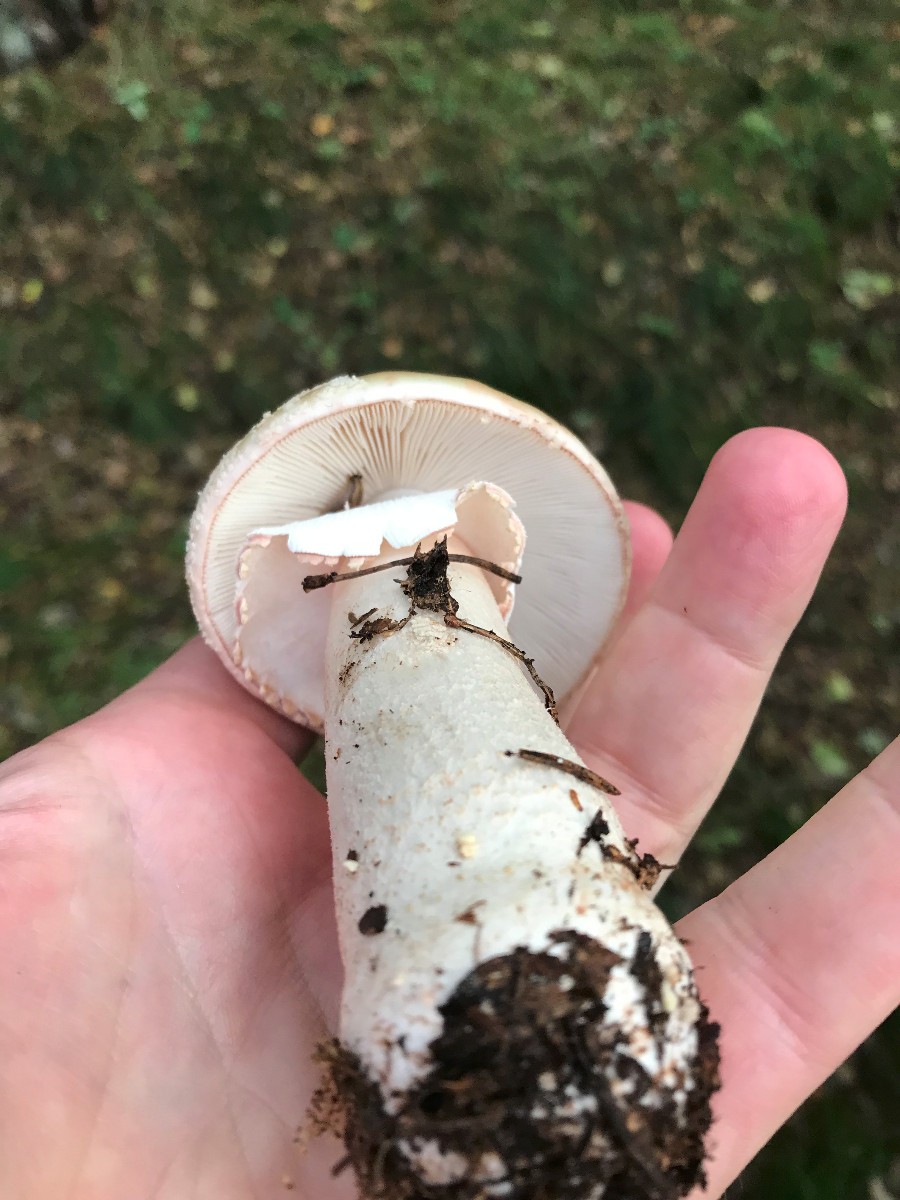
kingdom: Fungi
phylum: Basidiomycota
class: Agaricomycetes
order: Agaricales
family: Amanitaceae
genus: Amanita
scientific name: Amanita rubescens
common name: rødmende fluesvamp
